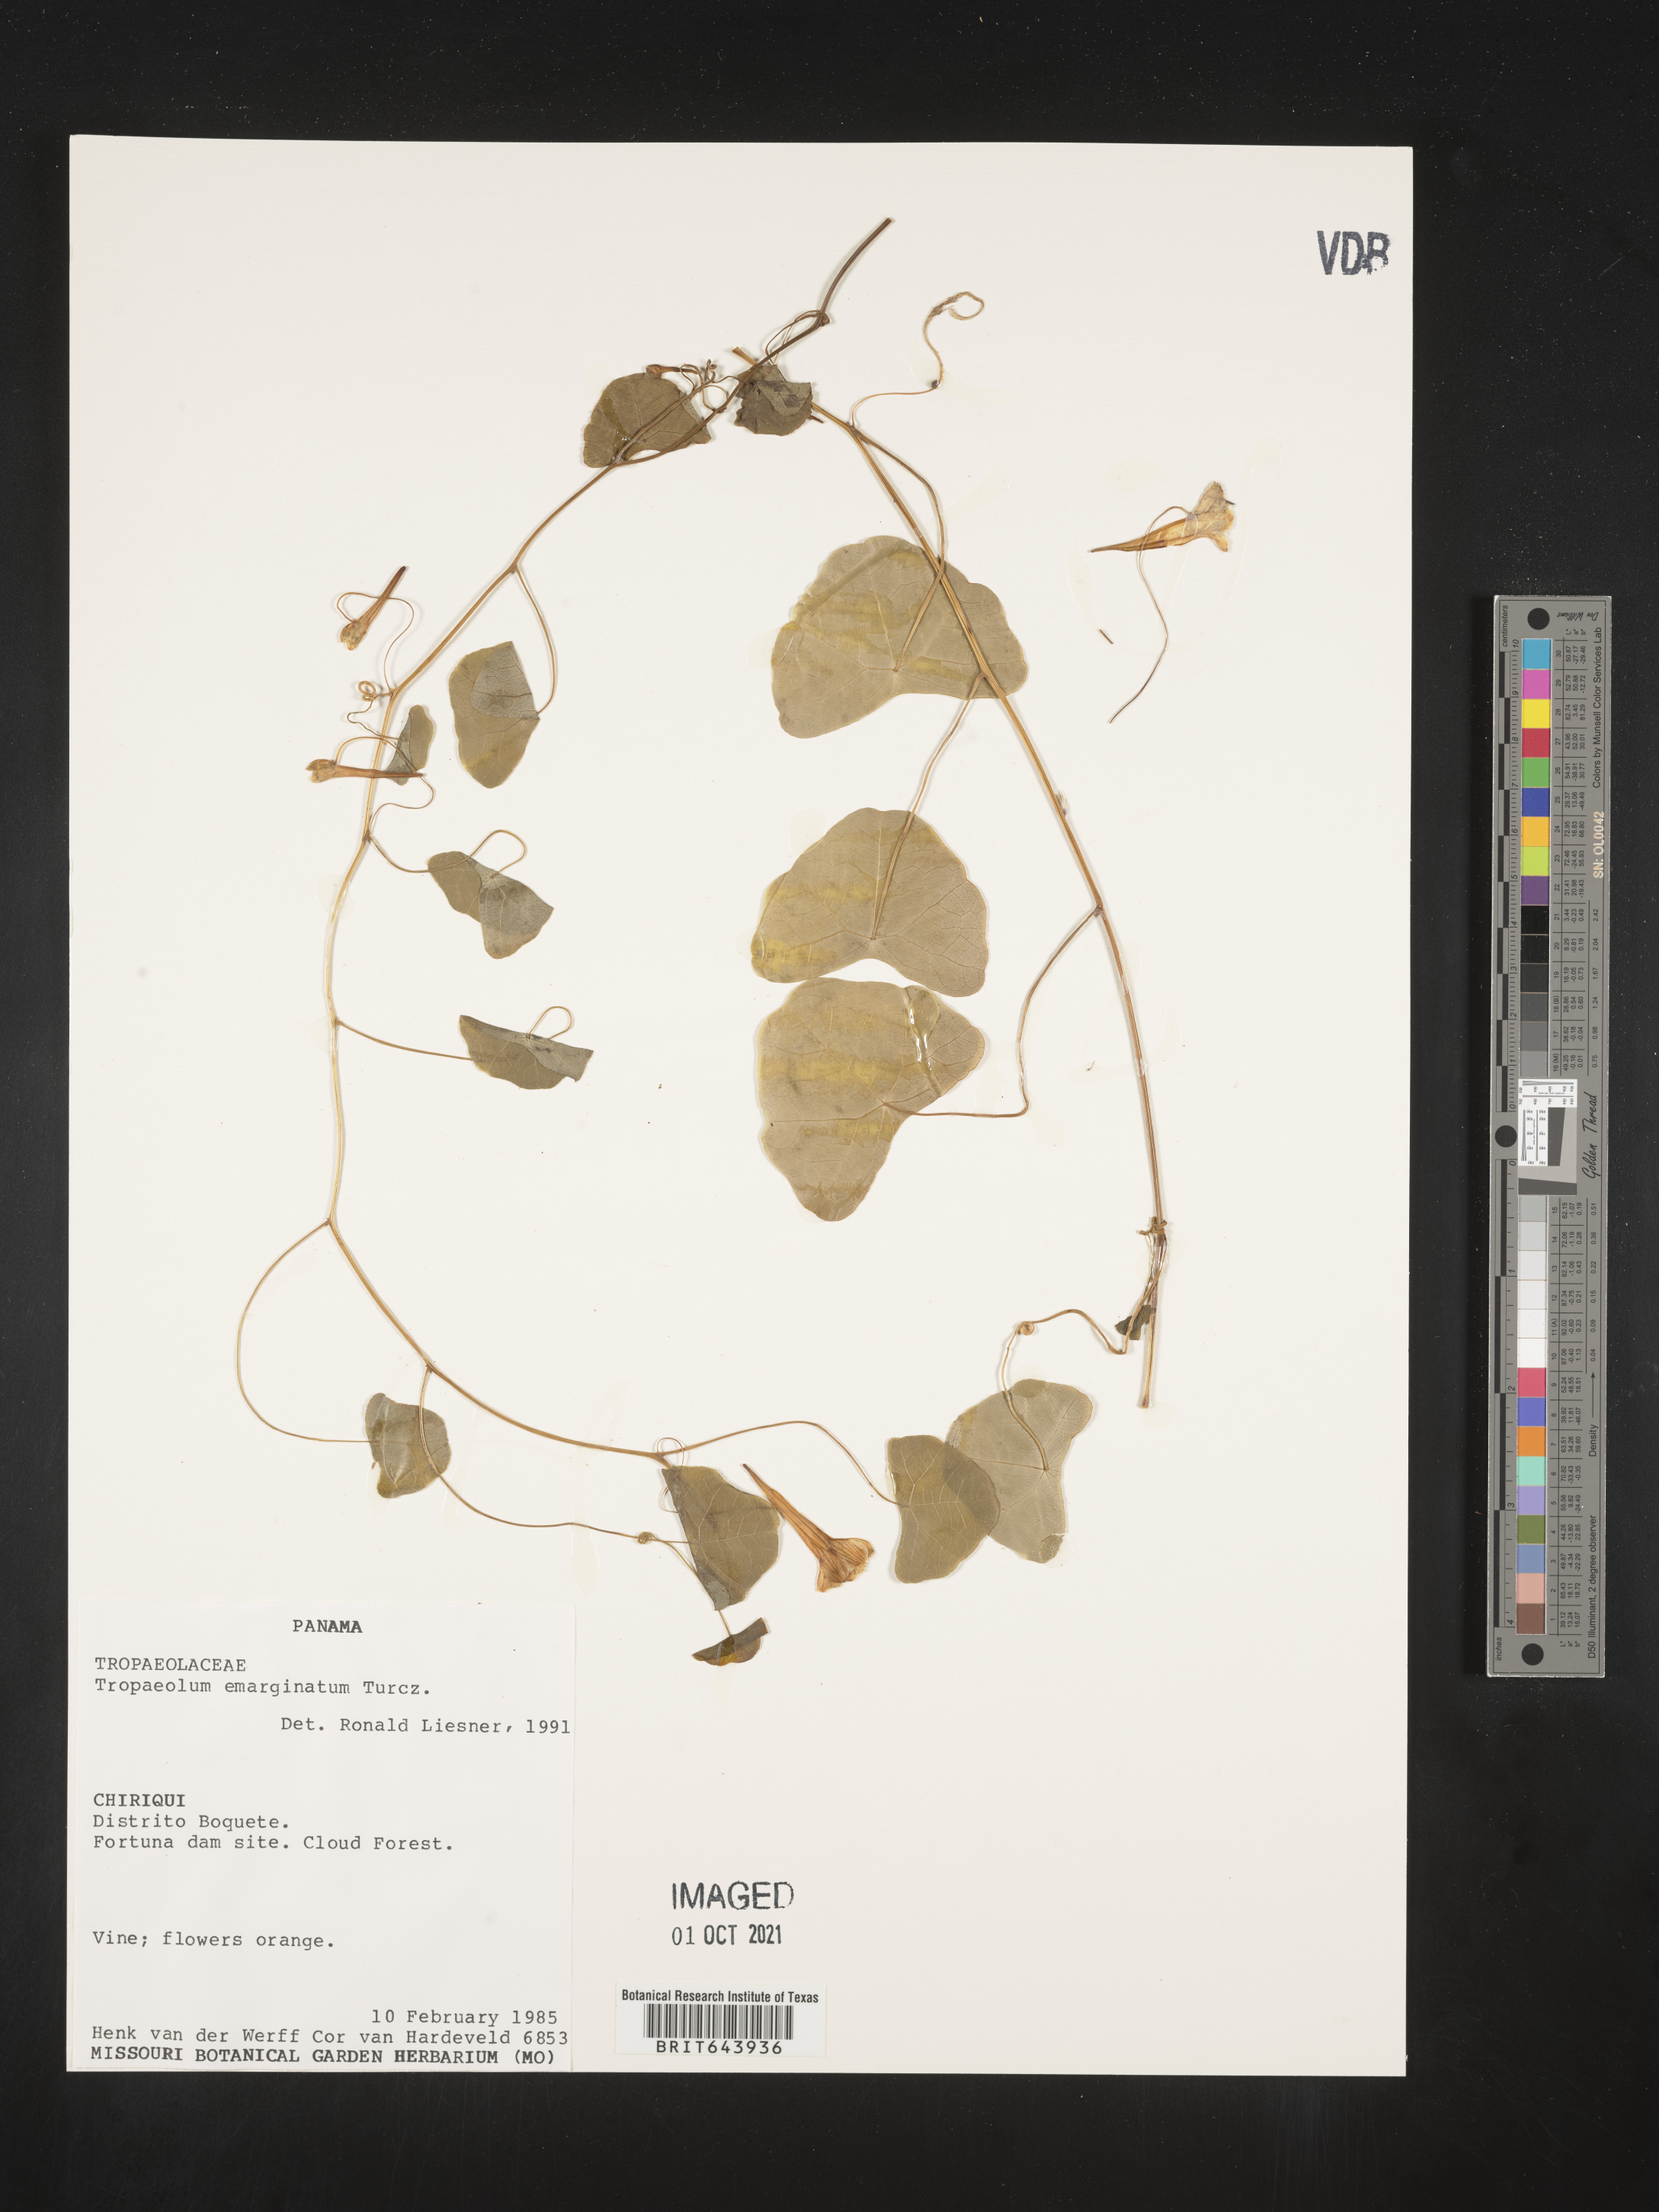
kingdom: Plantae
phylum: Tracheophyta
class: Magnoliopsida
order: Brassicales
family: Tropaeolaceae
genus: Tropaeolum
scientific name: Tropaeolum
